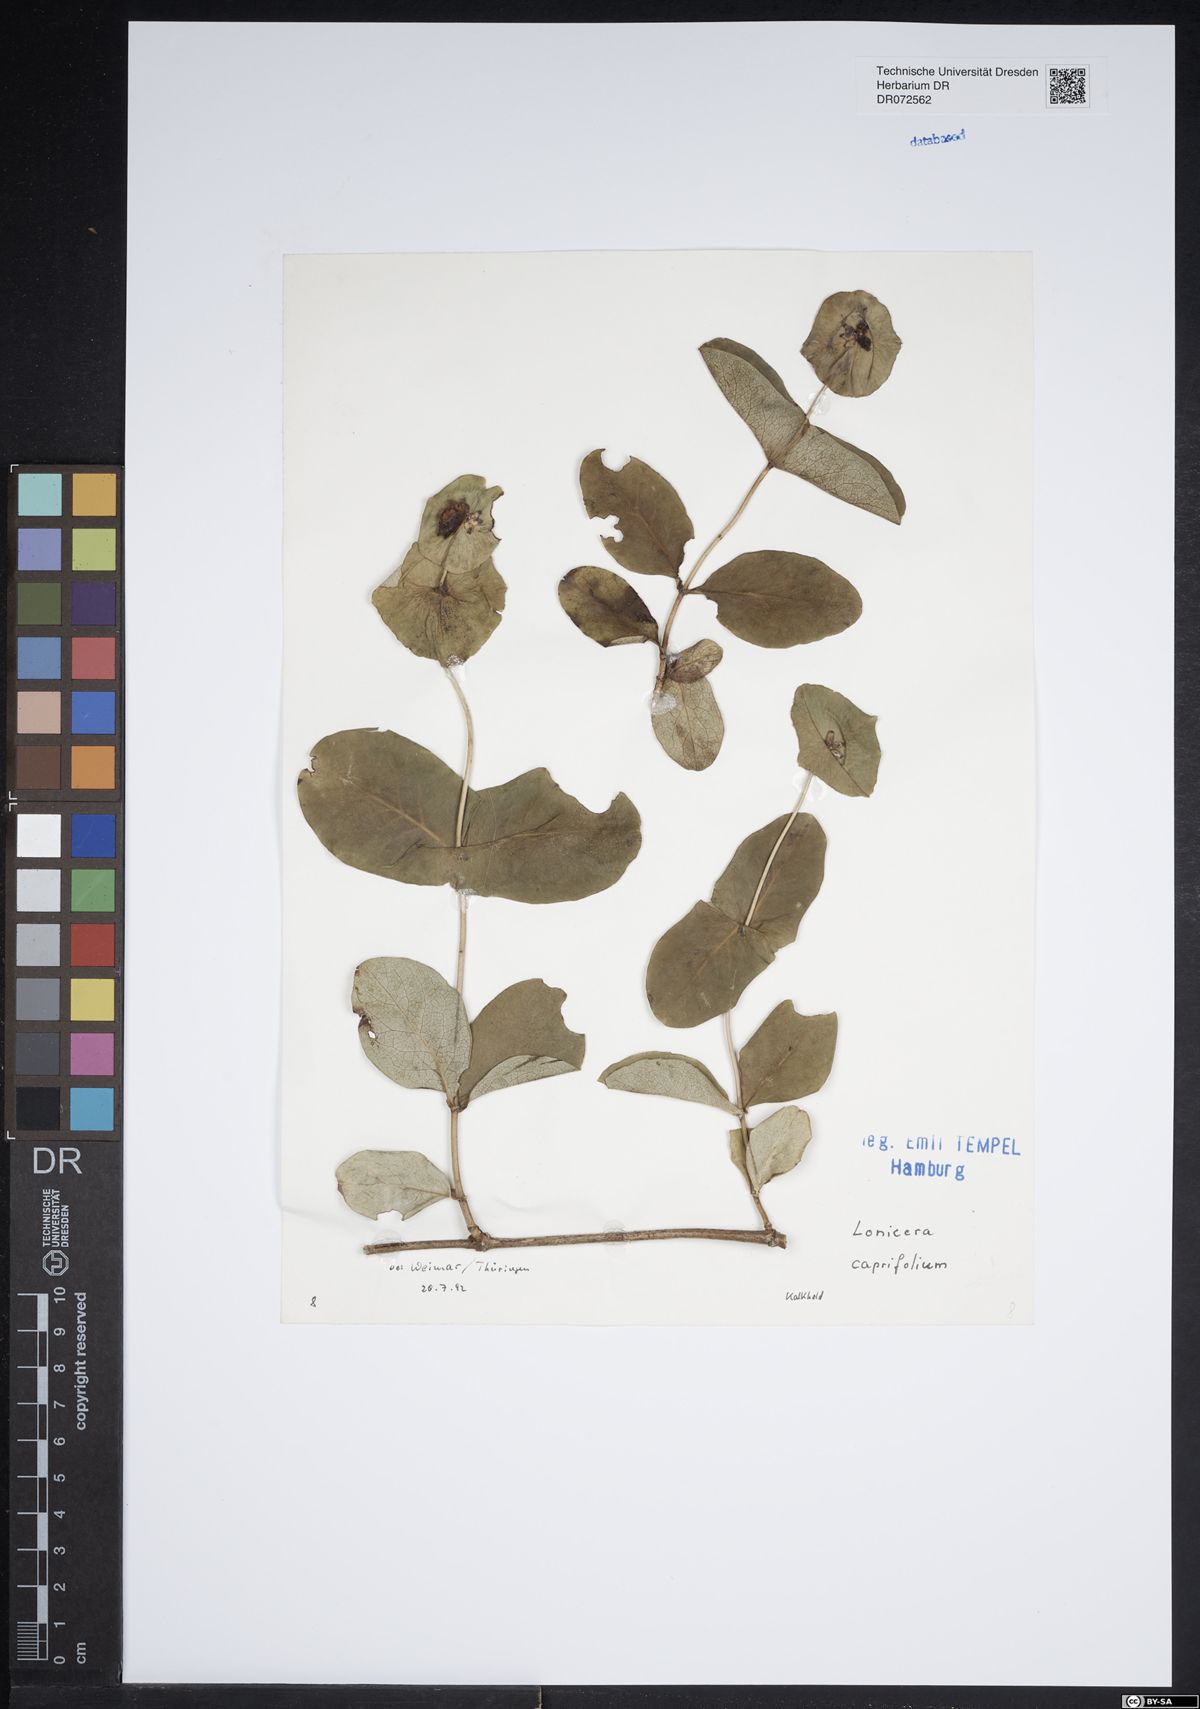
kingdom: Plantae
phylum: Tracheophyta
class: Magnoliopsida
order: Dipsacales
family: Caprifoliaceae
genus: Lonicera
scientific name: Lonicera caprifolium
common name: Perfoliate honeysuckle
